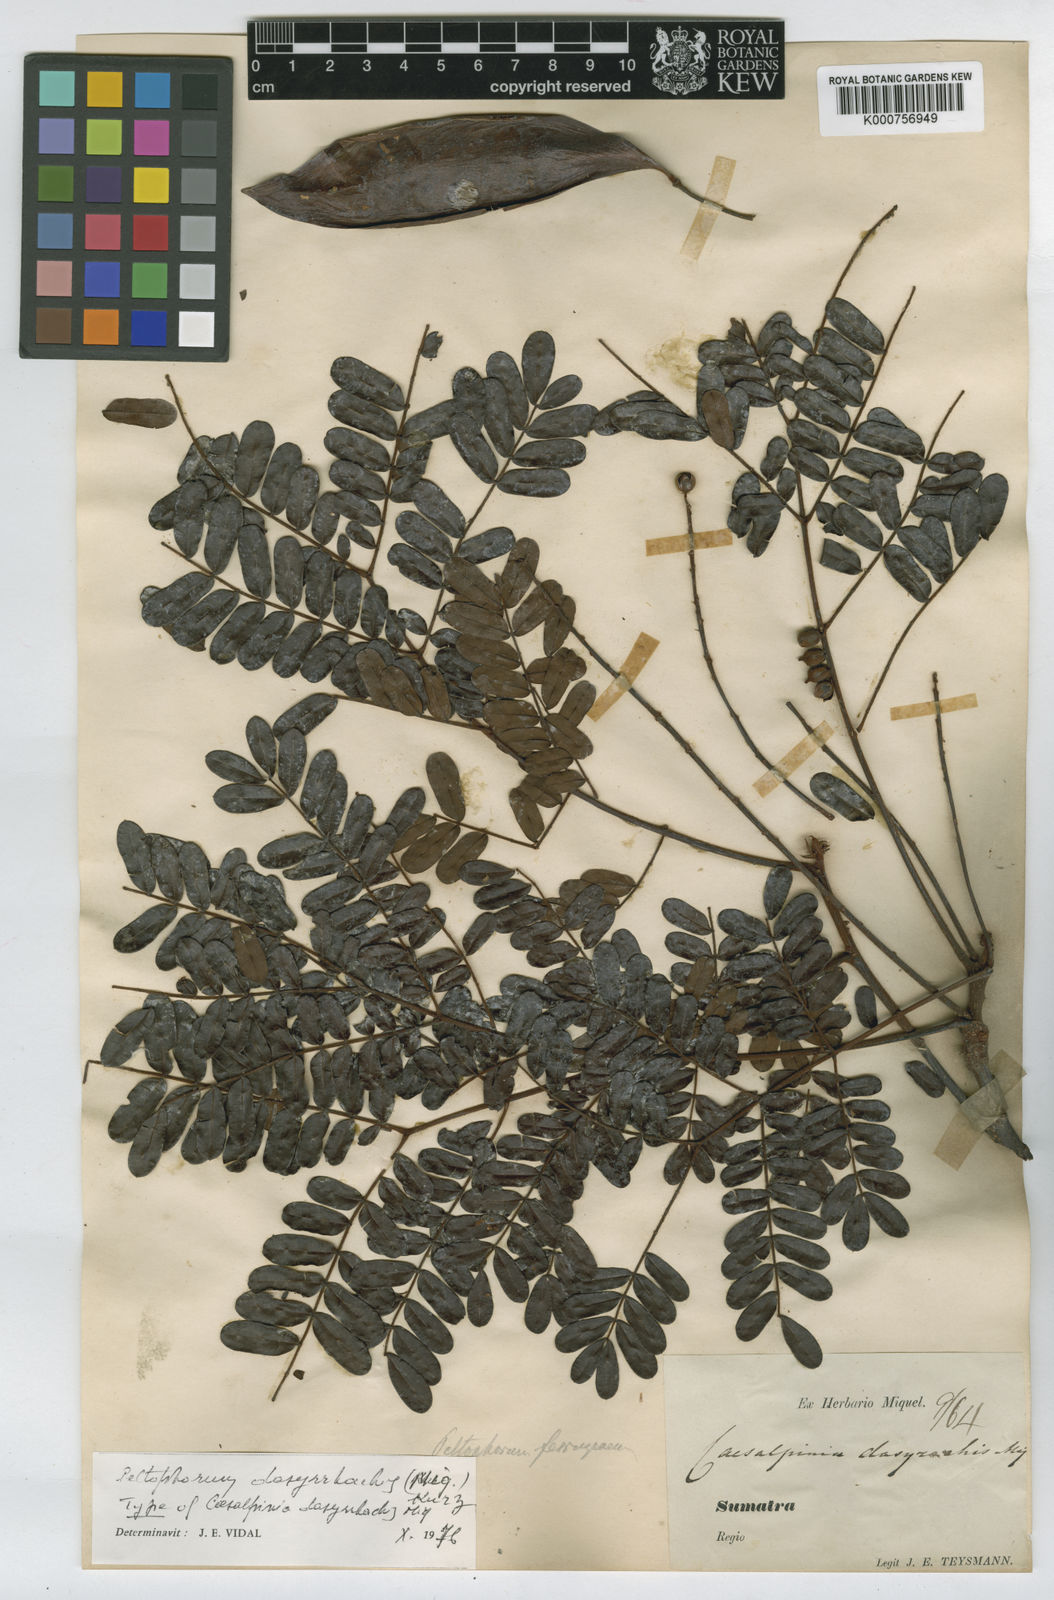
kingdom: Plantae
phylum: Tracheophyta
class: Magnoliopsida
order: Fabales
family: Fabaceae
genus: Peltophorum
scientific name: Peltophorum pterocarpum
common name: Yellow flame
